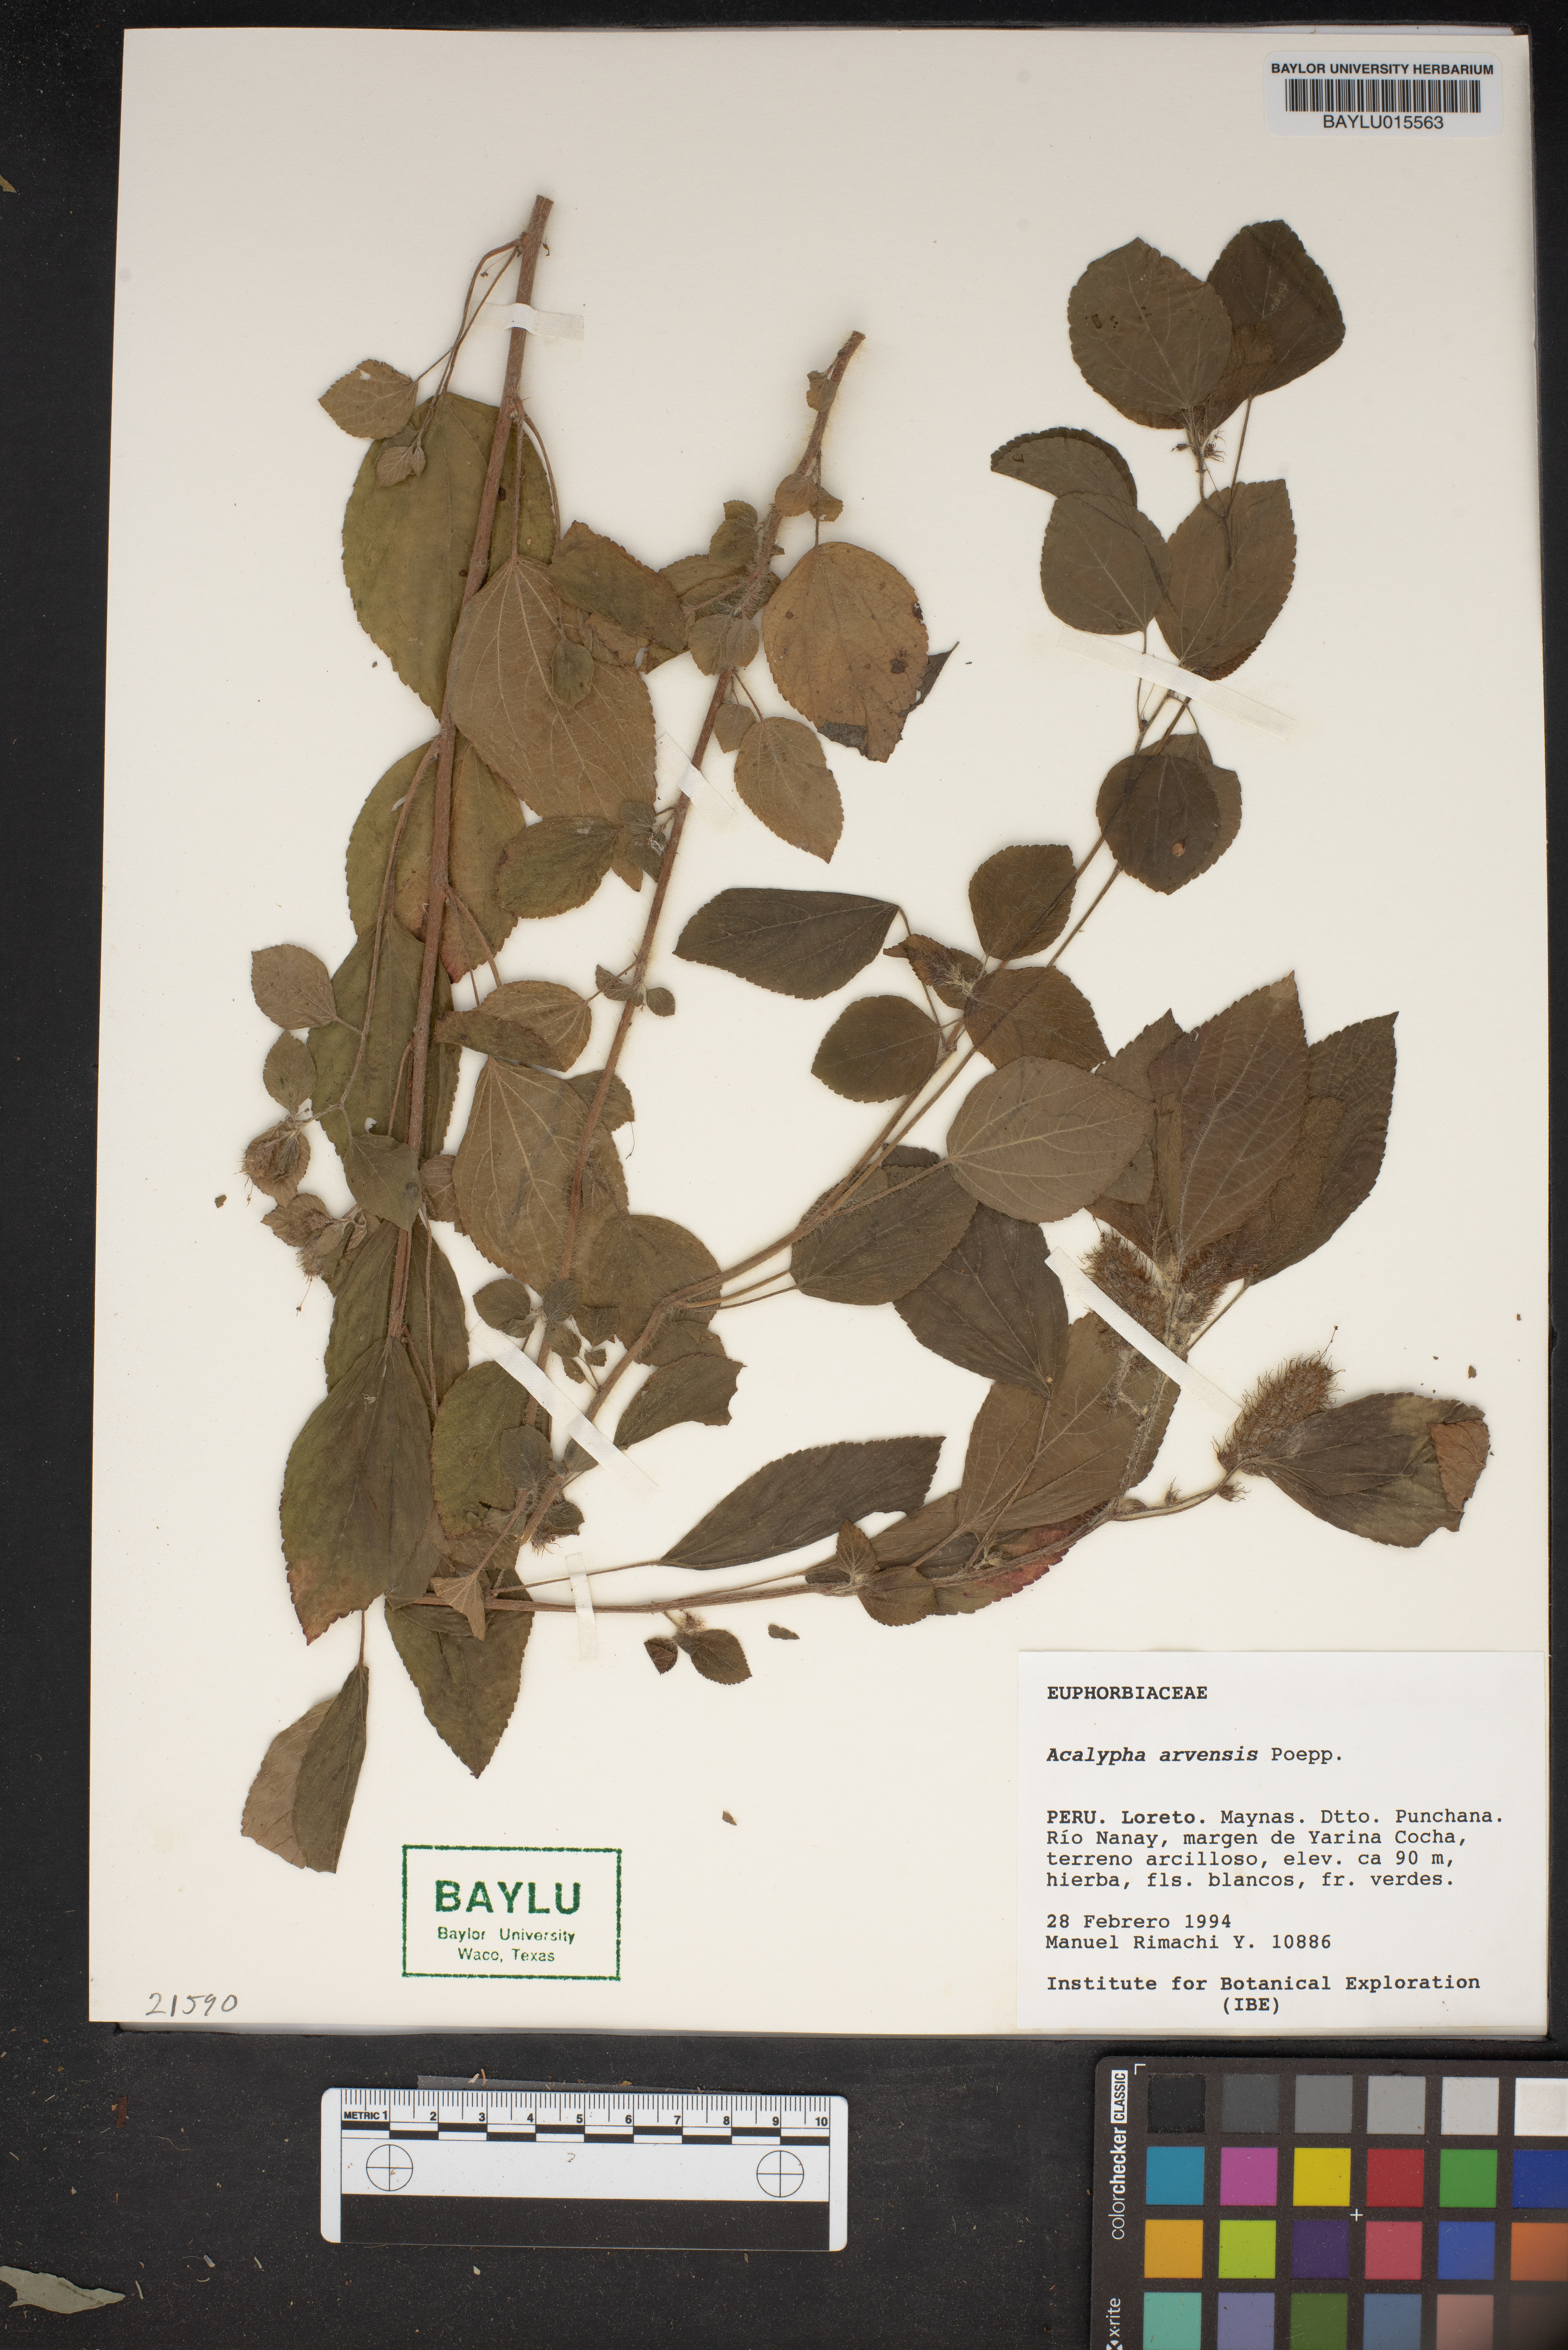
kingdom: Plantae
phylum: Tracheophyta
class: Magnoliopsida
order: Malpighiales
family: Euphorbiaceae
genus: Acalypha
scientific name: Acalypha arvensis
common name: Field copperleaf
